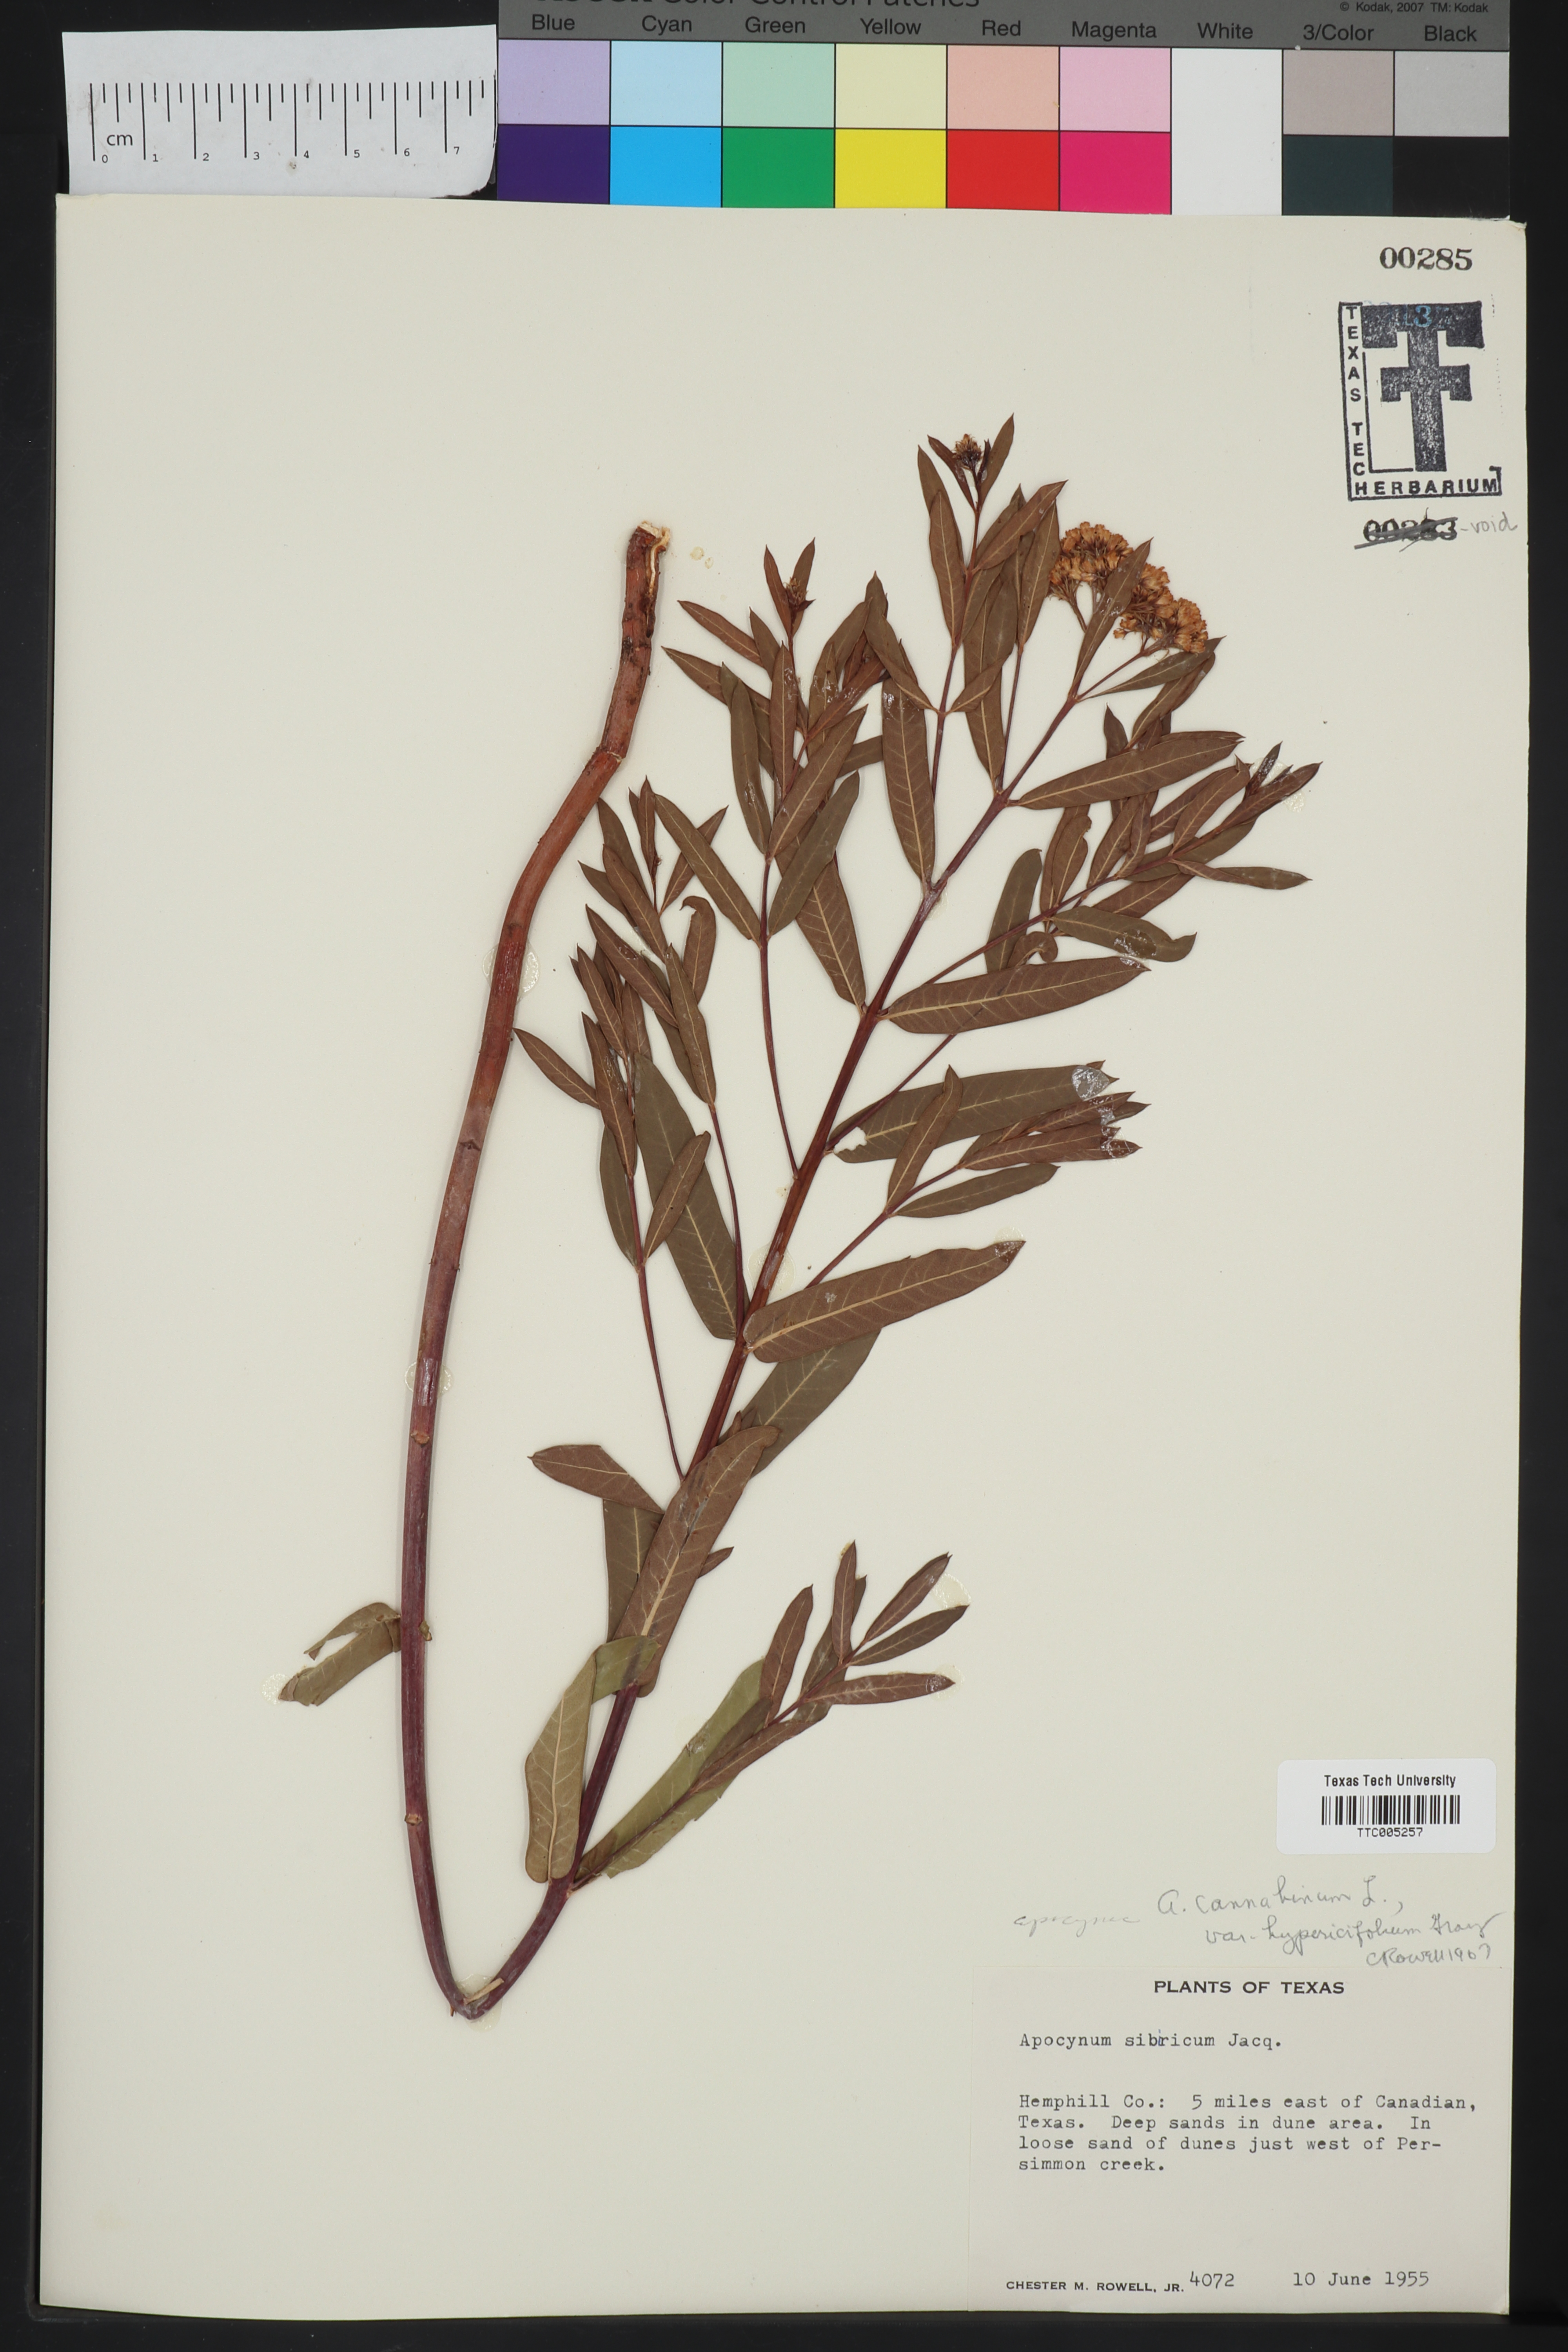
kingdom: Plantae
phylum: Tracheophyta
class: Magnoliopsida
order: Gentianales
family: Apocynaceae
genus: Apocynum
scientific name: Apocynum cannabinum
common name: Hemp dogbane
